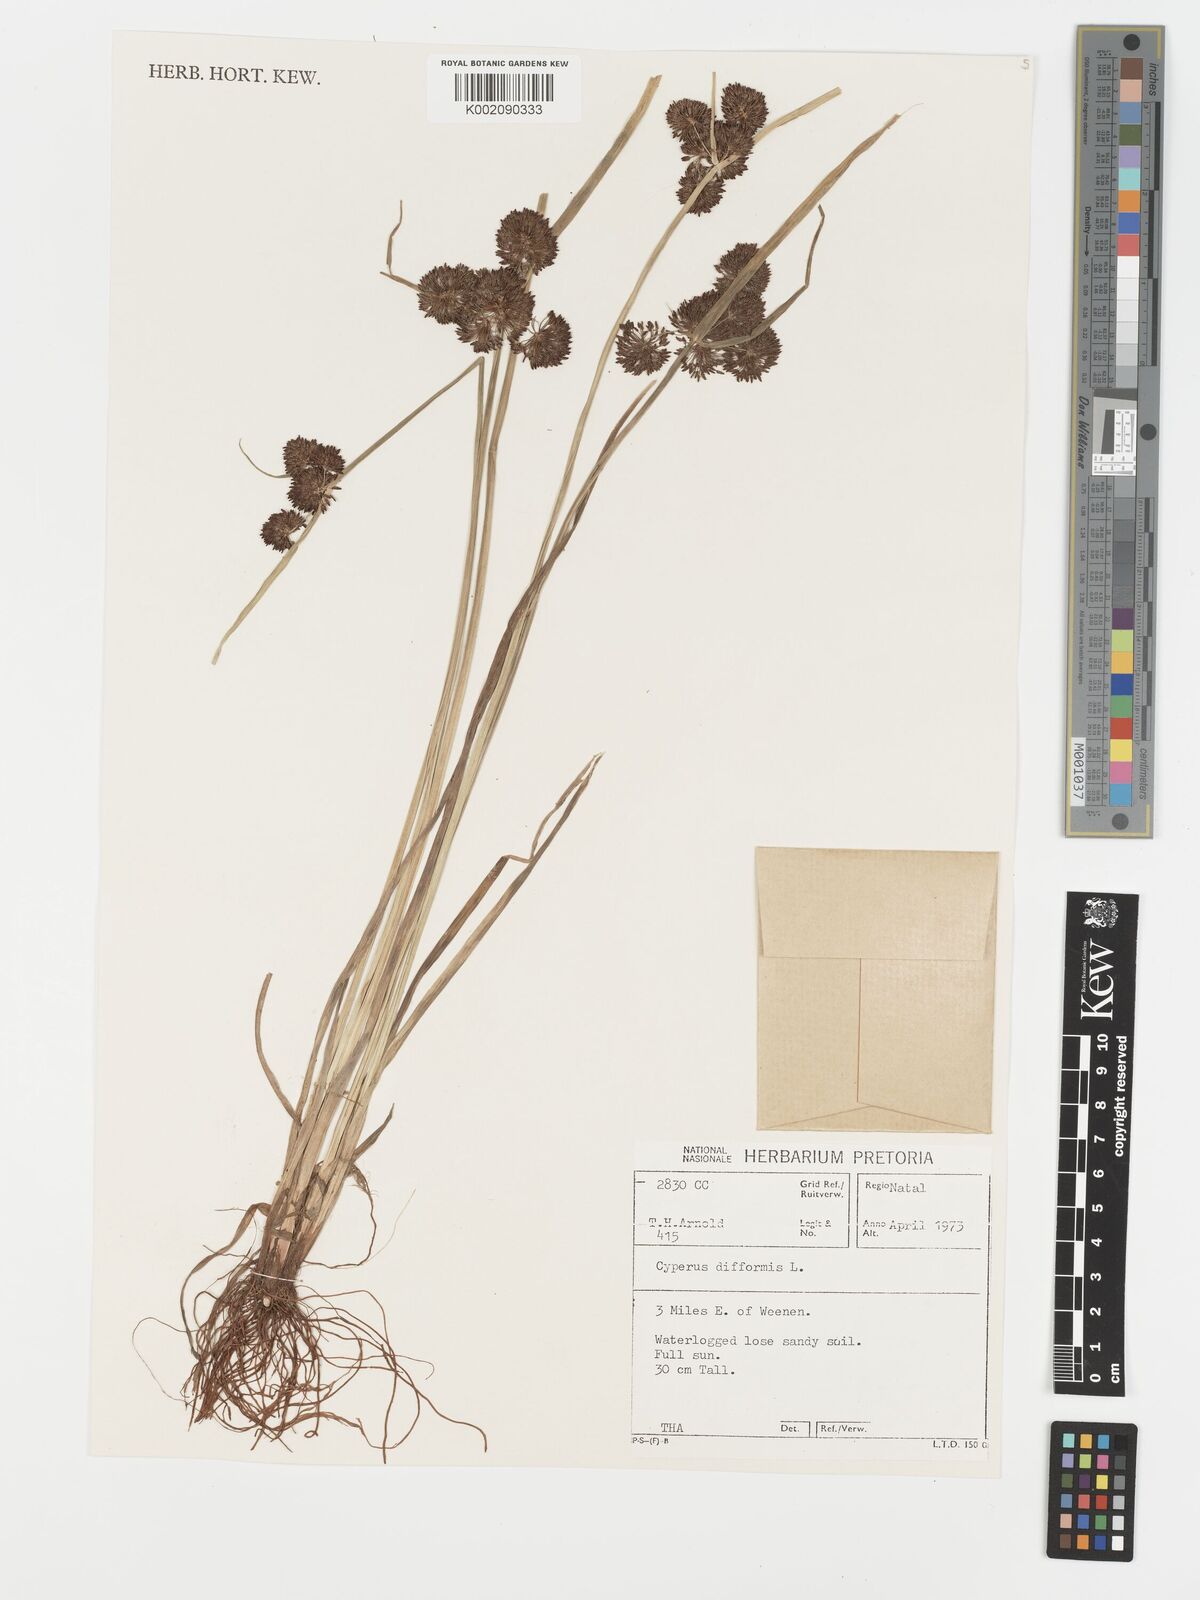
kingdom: Plantae
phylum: Tracheophyta
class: Liliopsida
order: Poales
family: Cyperaceae
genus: Cyperus
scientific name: Cyperus difformis
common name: Variable flatsedge
